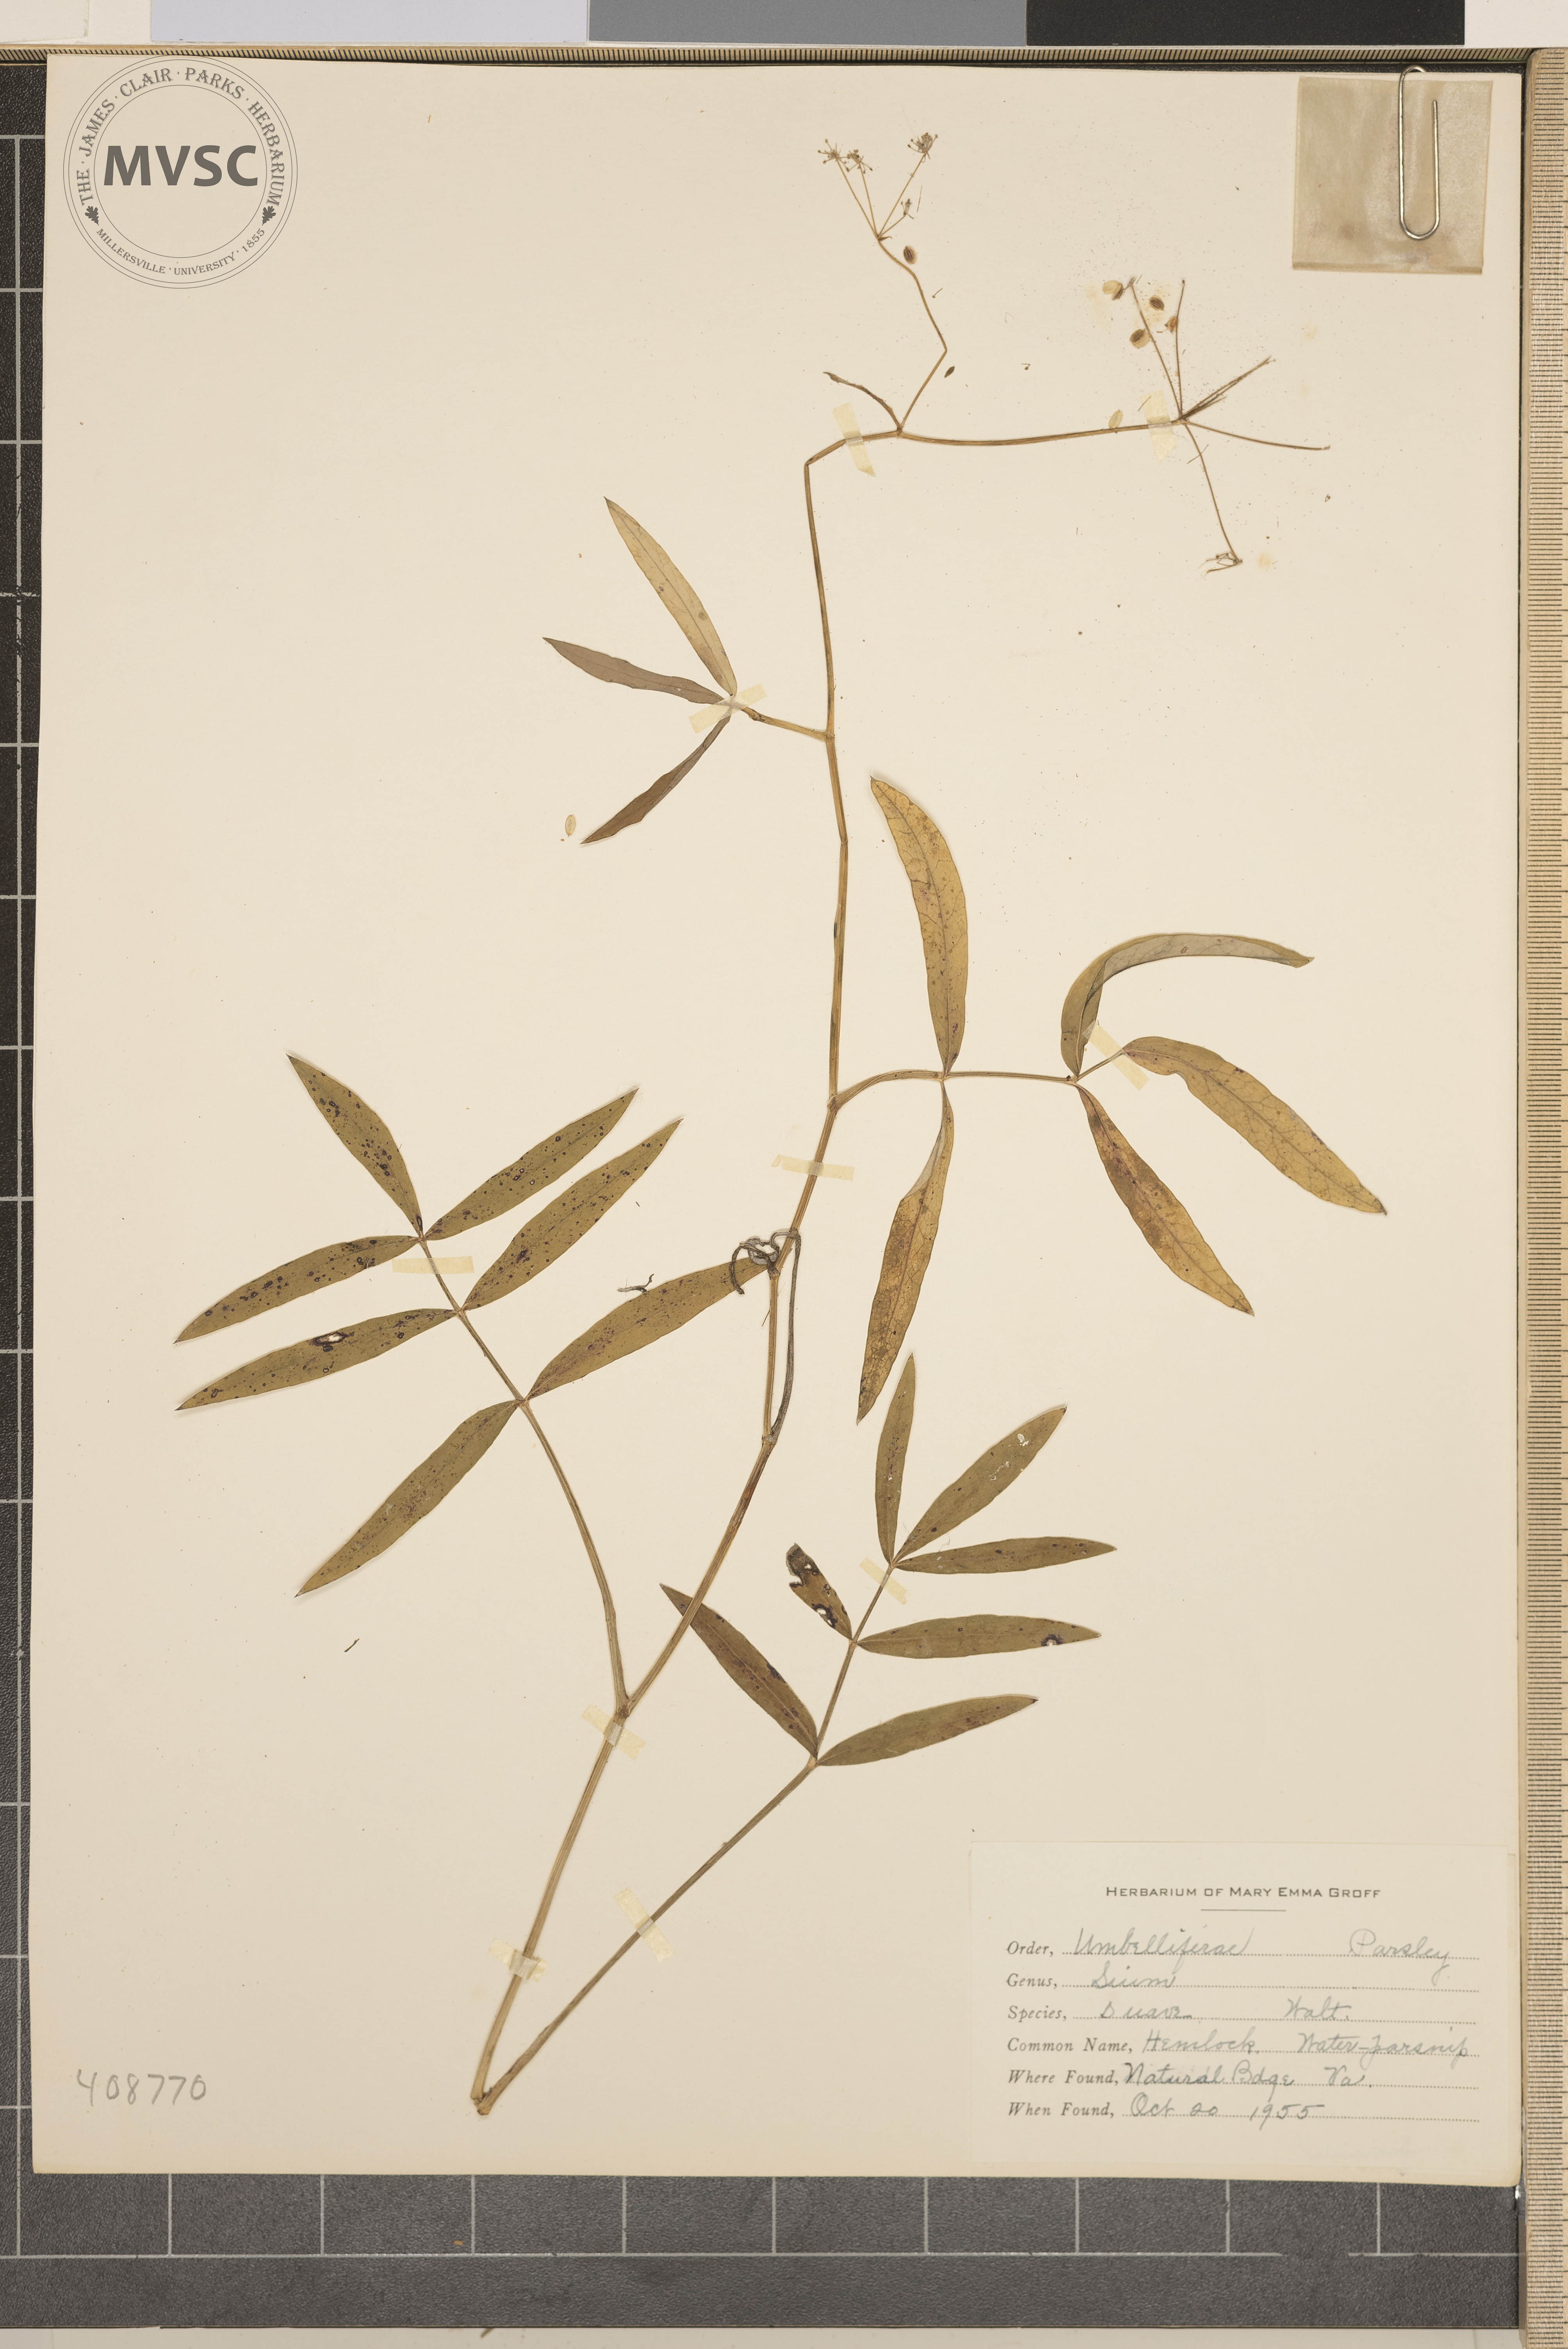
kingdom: Plantae
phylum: Tracheophyta
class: Magnoliopsida
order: Apiales
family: Apiaceae
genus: Sium
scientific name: Sium suave
